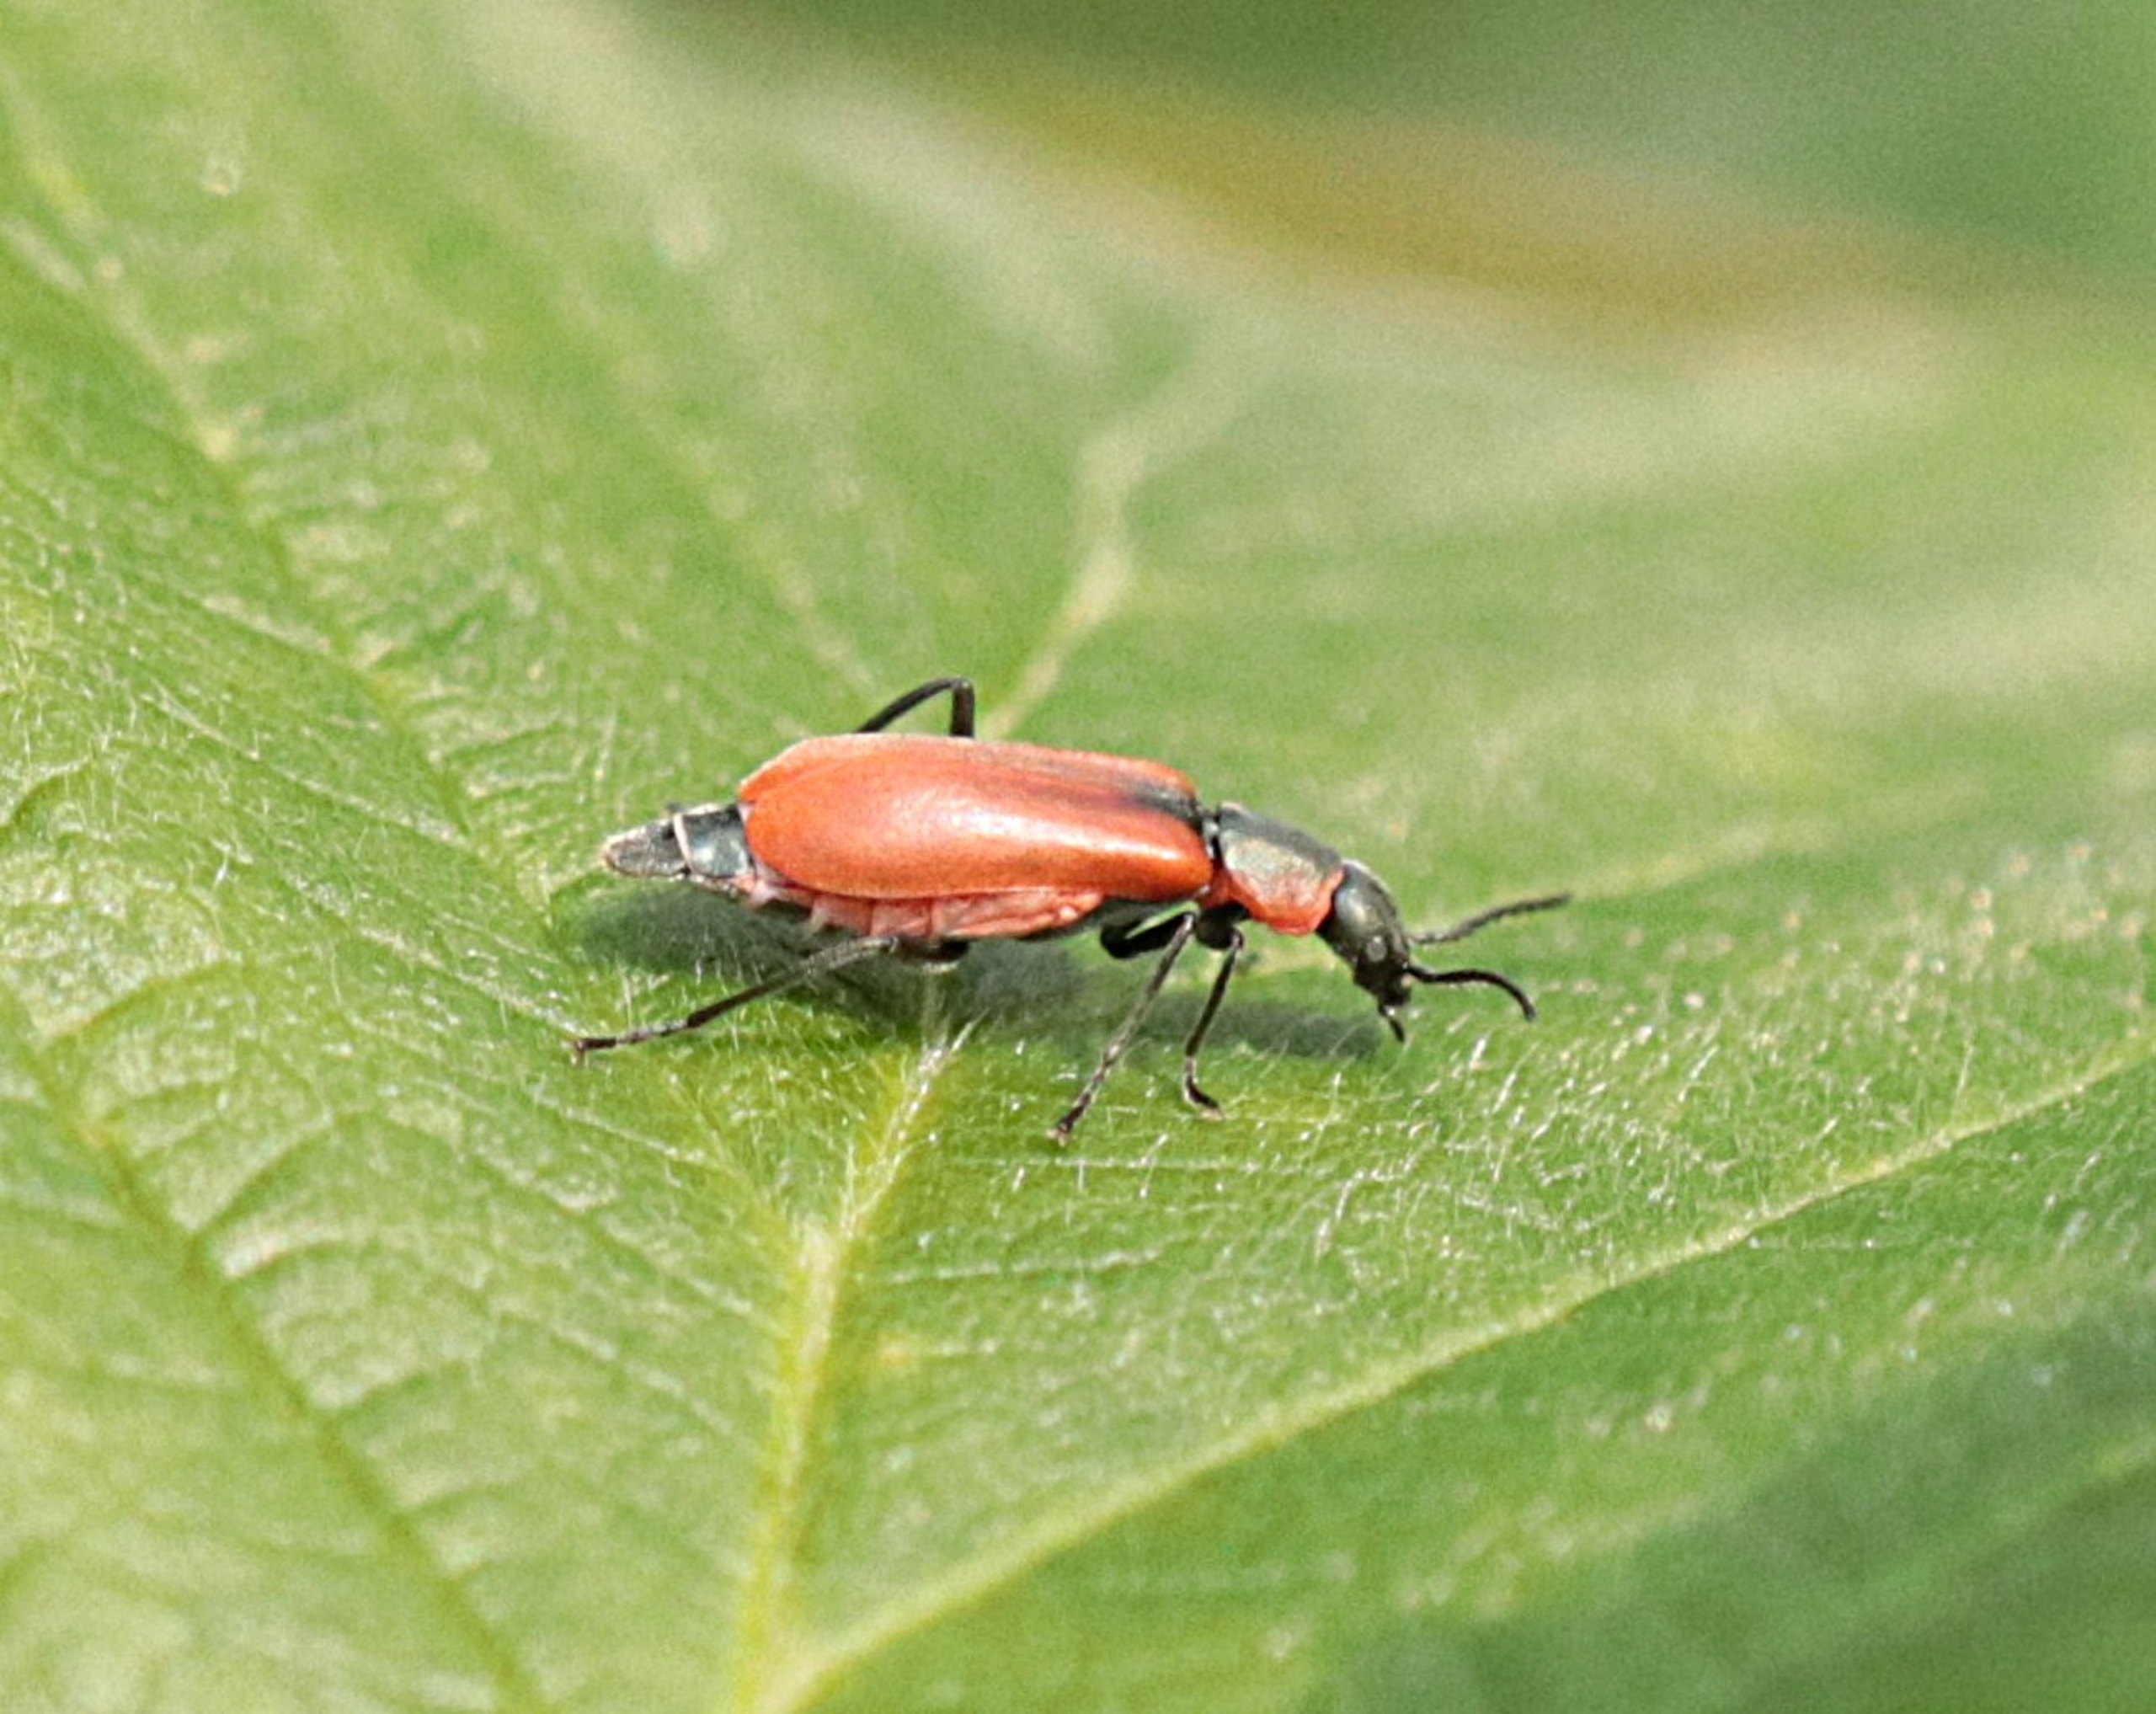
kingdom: Animalia
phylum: Arthropoda
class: Insecta
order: Coleoptera
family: Melyridae
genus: Anthocomus
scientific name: Anthocomus rufus
